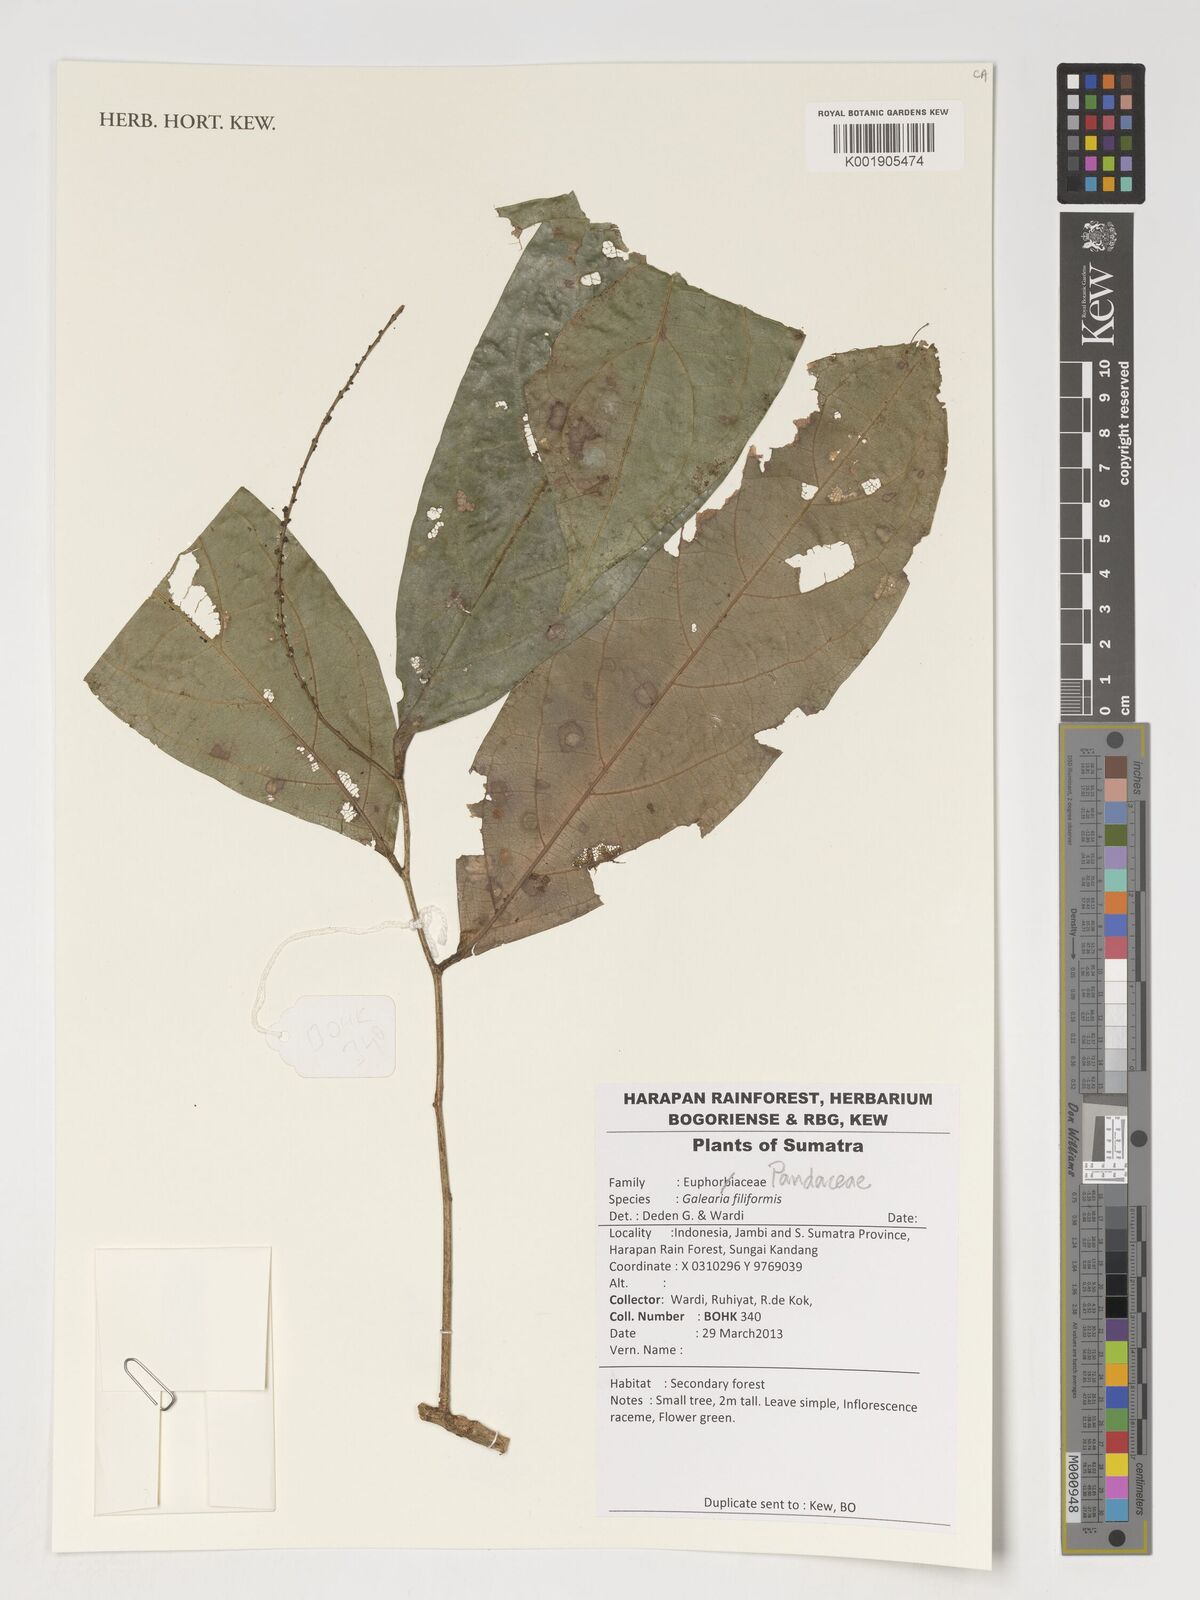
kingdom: Plantae
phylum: Tracheophyta
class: Magnoliopsida
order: Malpighiales
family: Pandaceae
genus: Galearia
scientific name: Galearia filiformis
